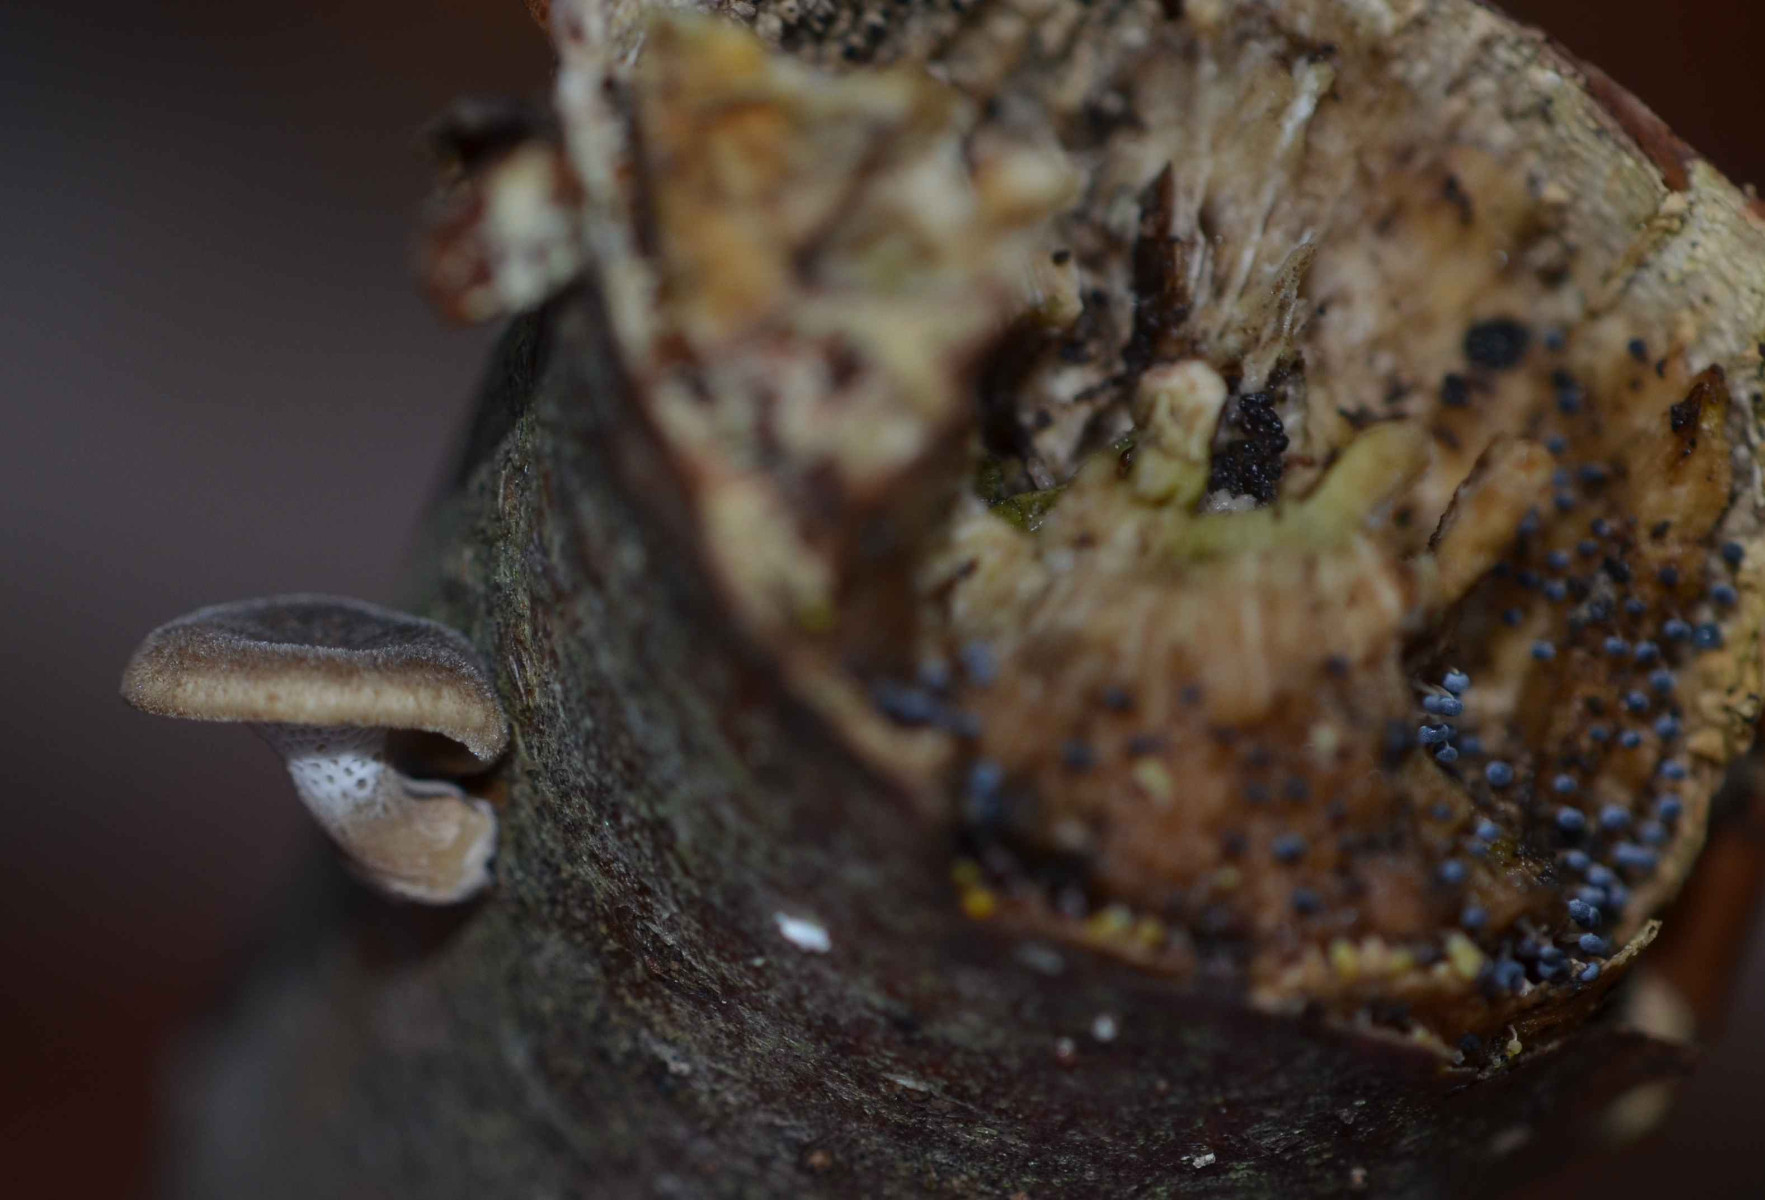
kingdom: Fungi
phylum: Basidiomycota
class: Agaricomycetes
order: Polyporales
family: Polyporaceae
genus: Lentinus
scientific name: Lentinus brumalis
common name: vinter-stilkporesvamp
